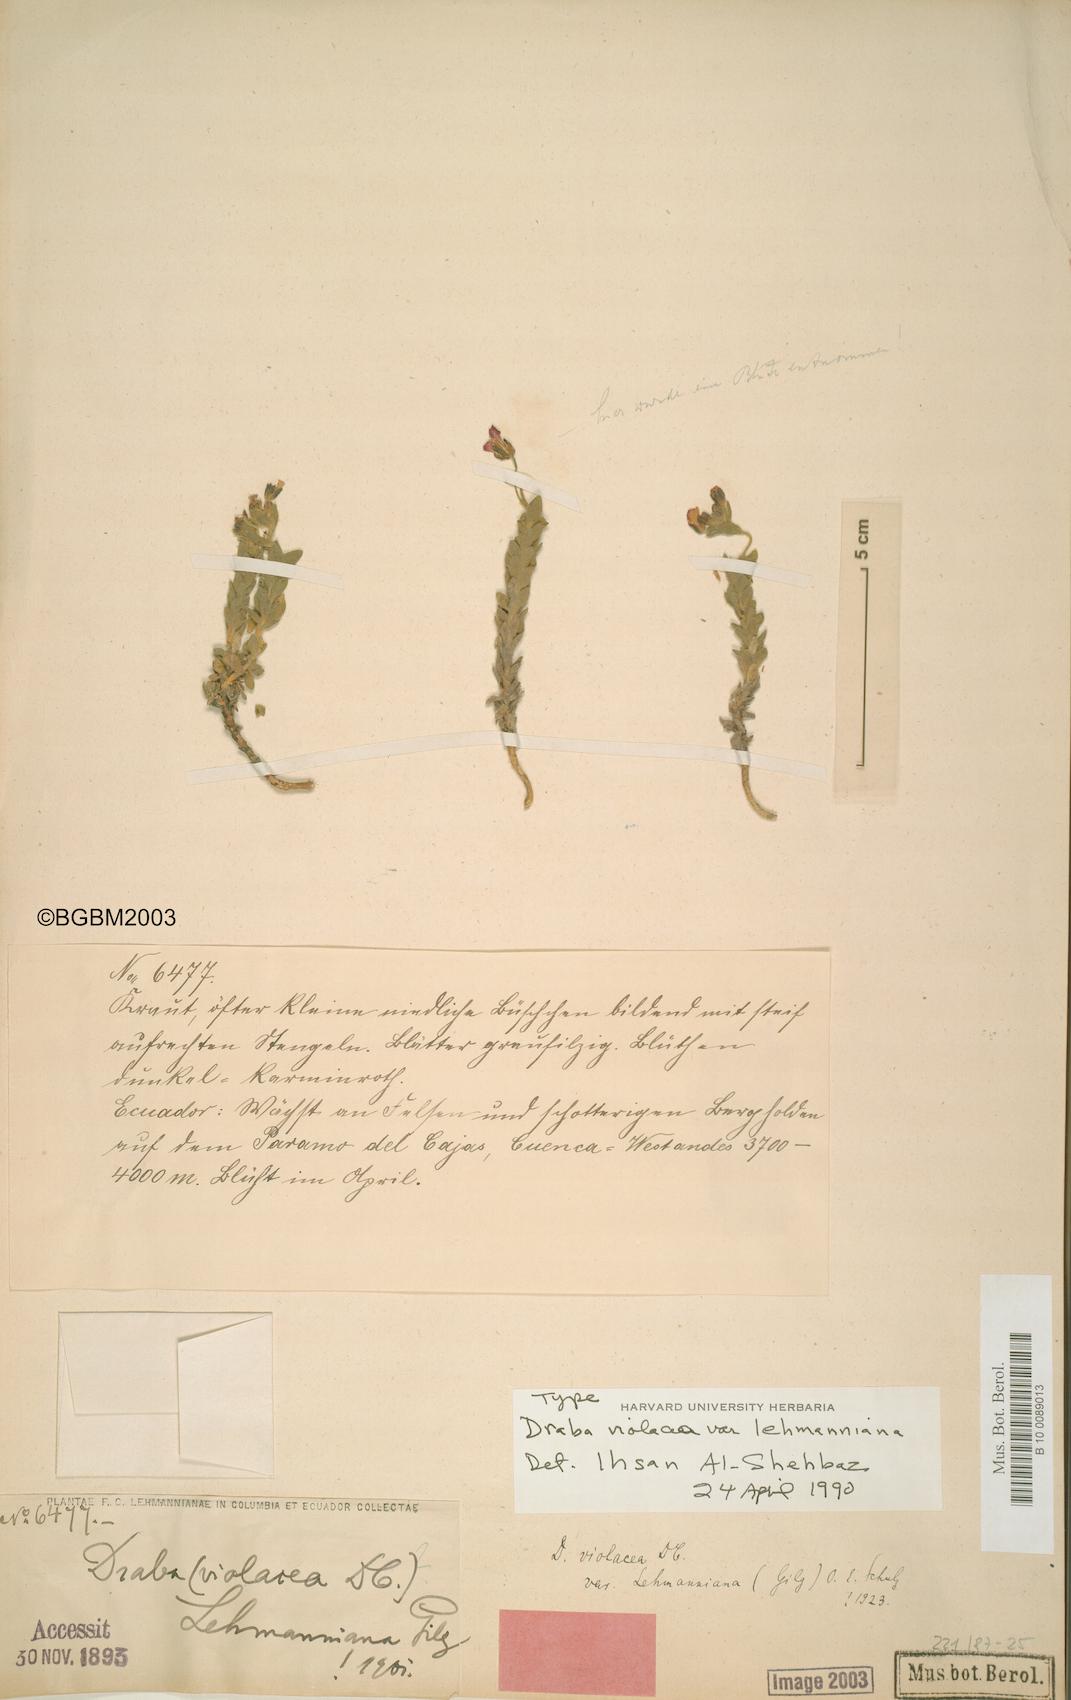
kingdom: Plantae
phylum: Tracheophyta
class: Magnoliopsida
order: Brassicales
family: Brassicaceae
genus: Draba
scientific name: Draba violacea
